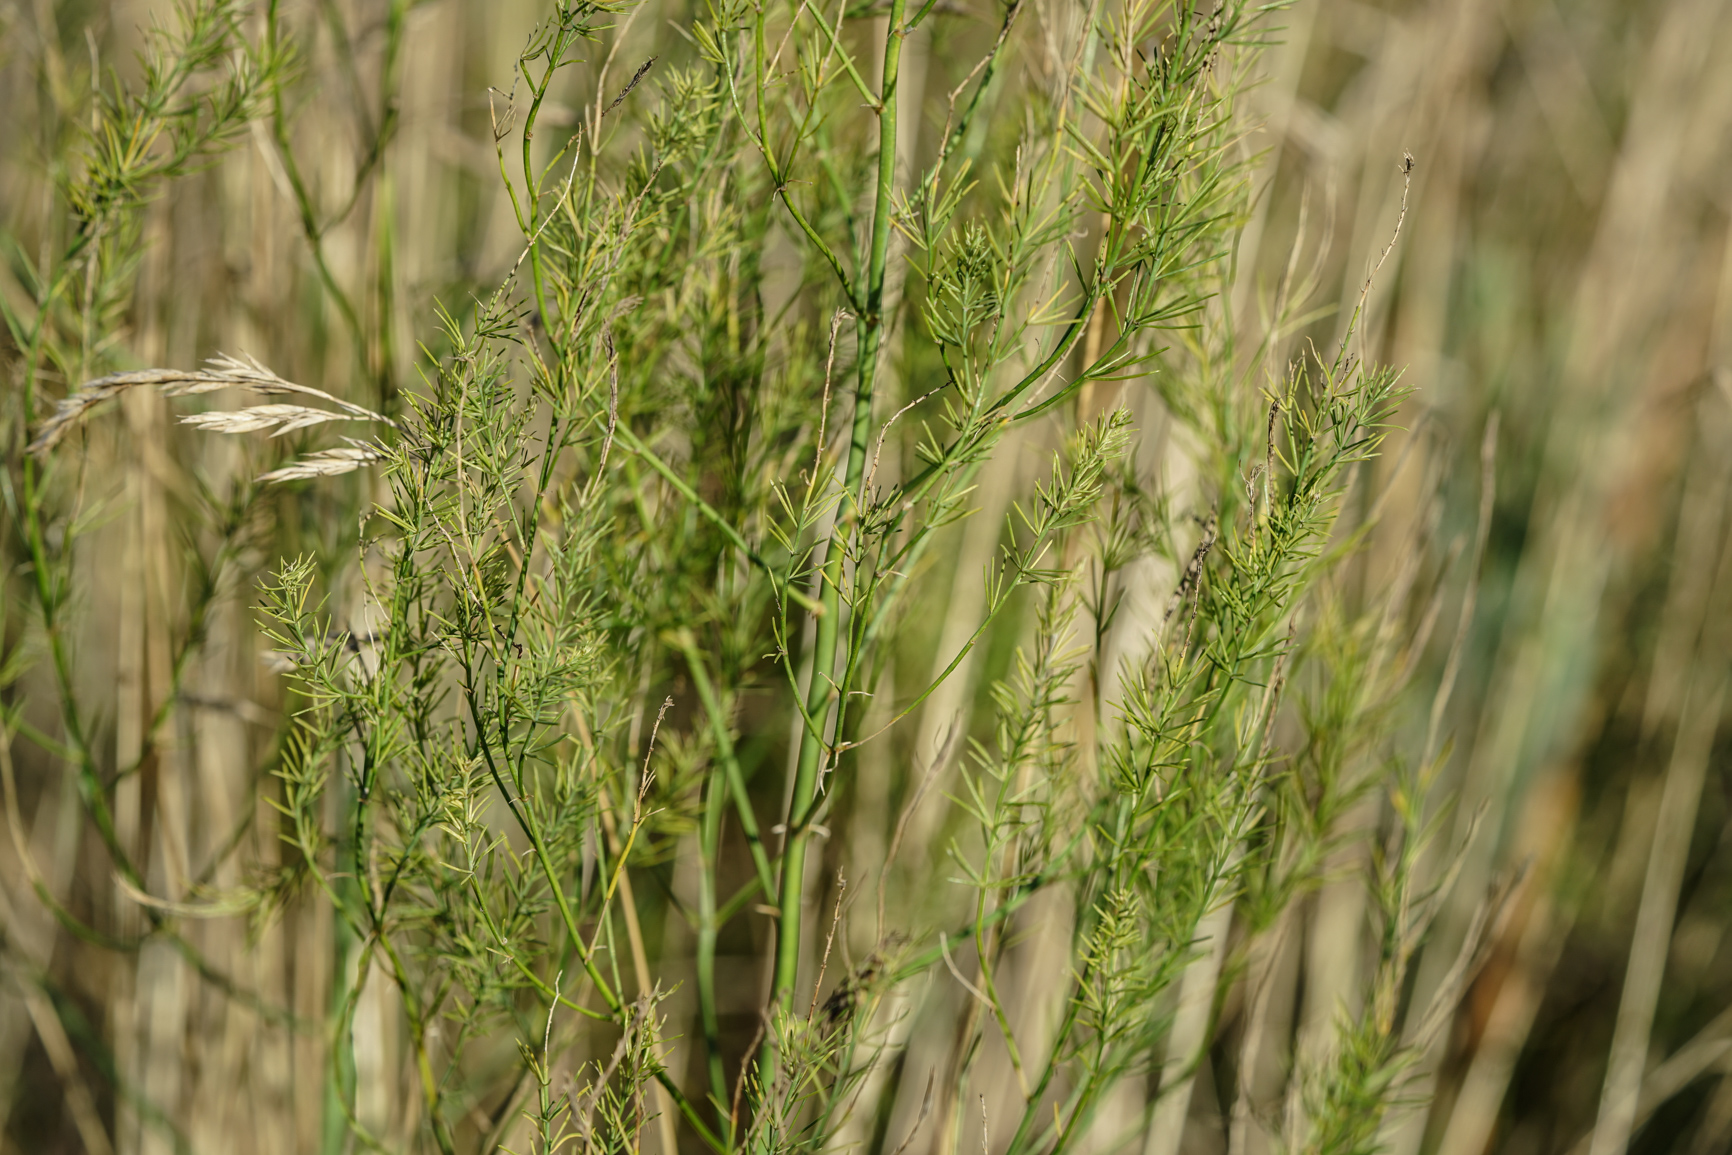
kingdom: Plantae
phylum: Tracheophyta
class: Liliopsida
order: Asparagales
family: Asparagaceae
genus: Asparagus
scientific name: Asparagus officinalis
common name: Garden asparagus
